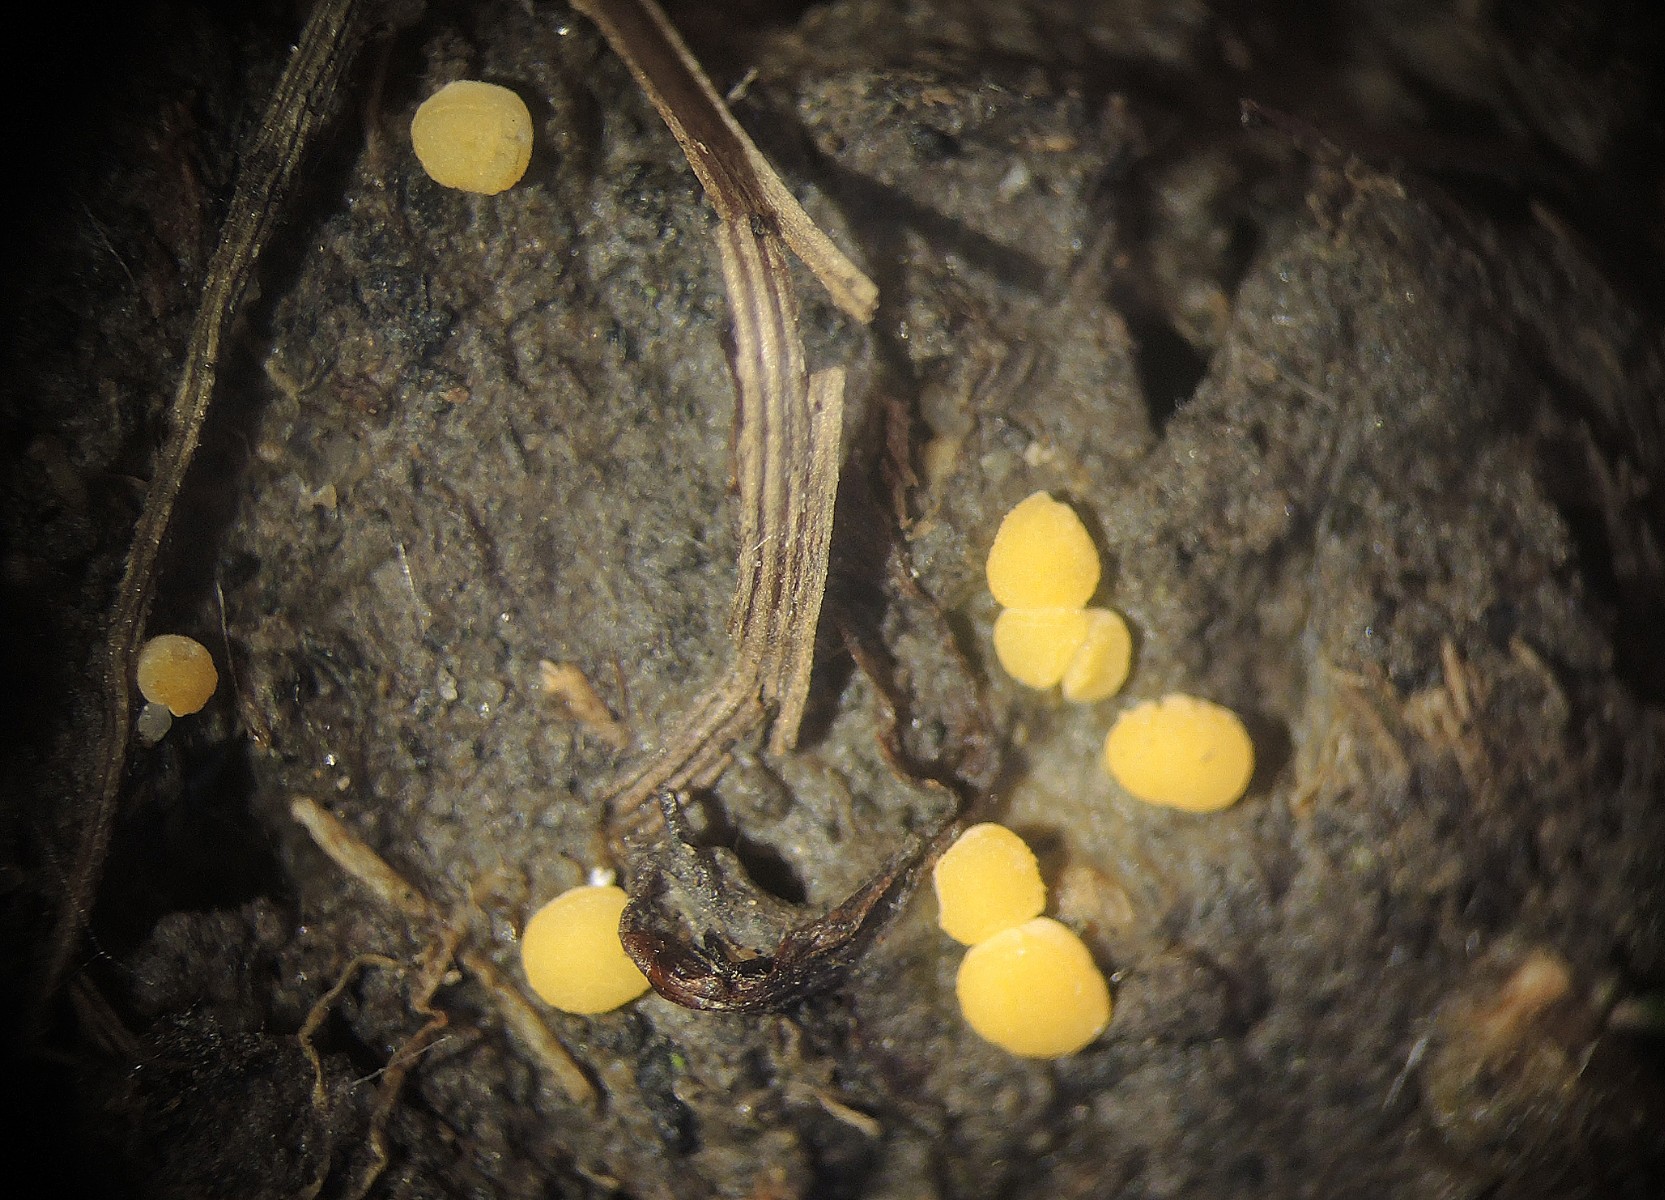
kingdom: Fungi
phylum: Ascomycota
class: Pezizomycetes
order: Pezizales
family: Pyronemataceae
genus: Pulvinula
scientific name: Pulvinula
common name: pudebæger
